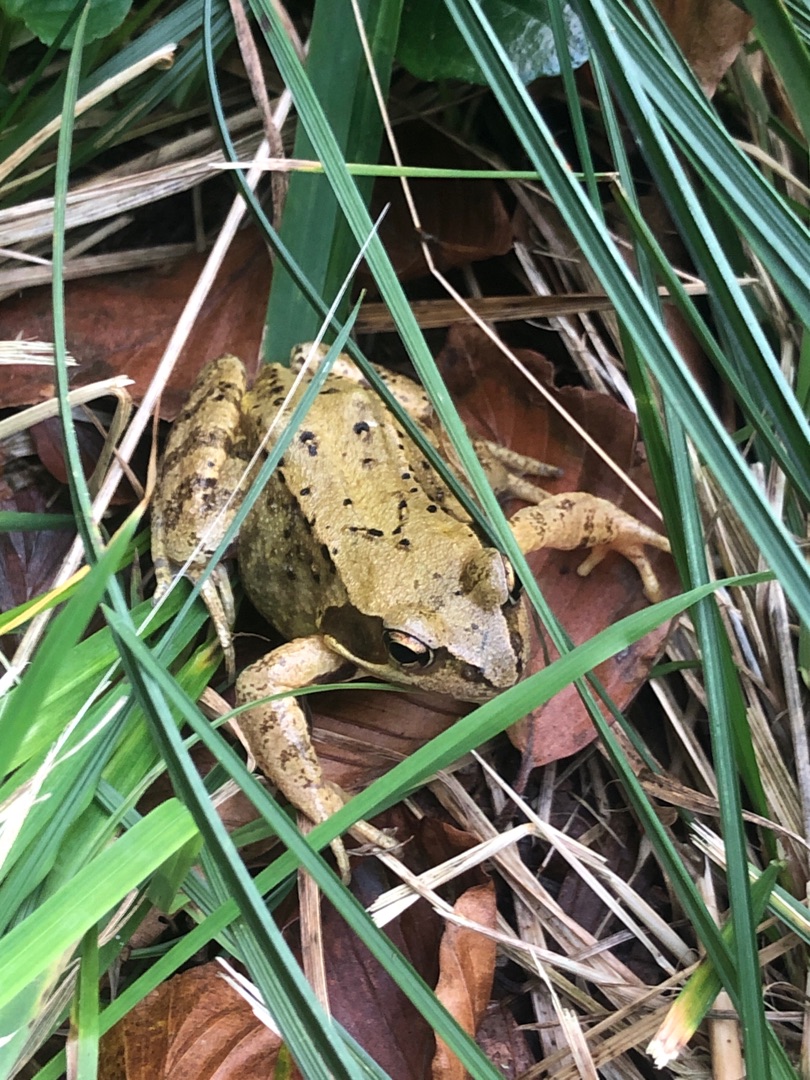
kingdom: Animalia
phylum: Chordata
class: Amphibia
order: Anura
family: Ranidae
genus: Rana
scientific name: Rana temporaria
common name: Butsnudet frø
